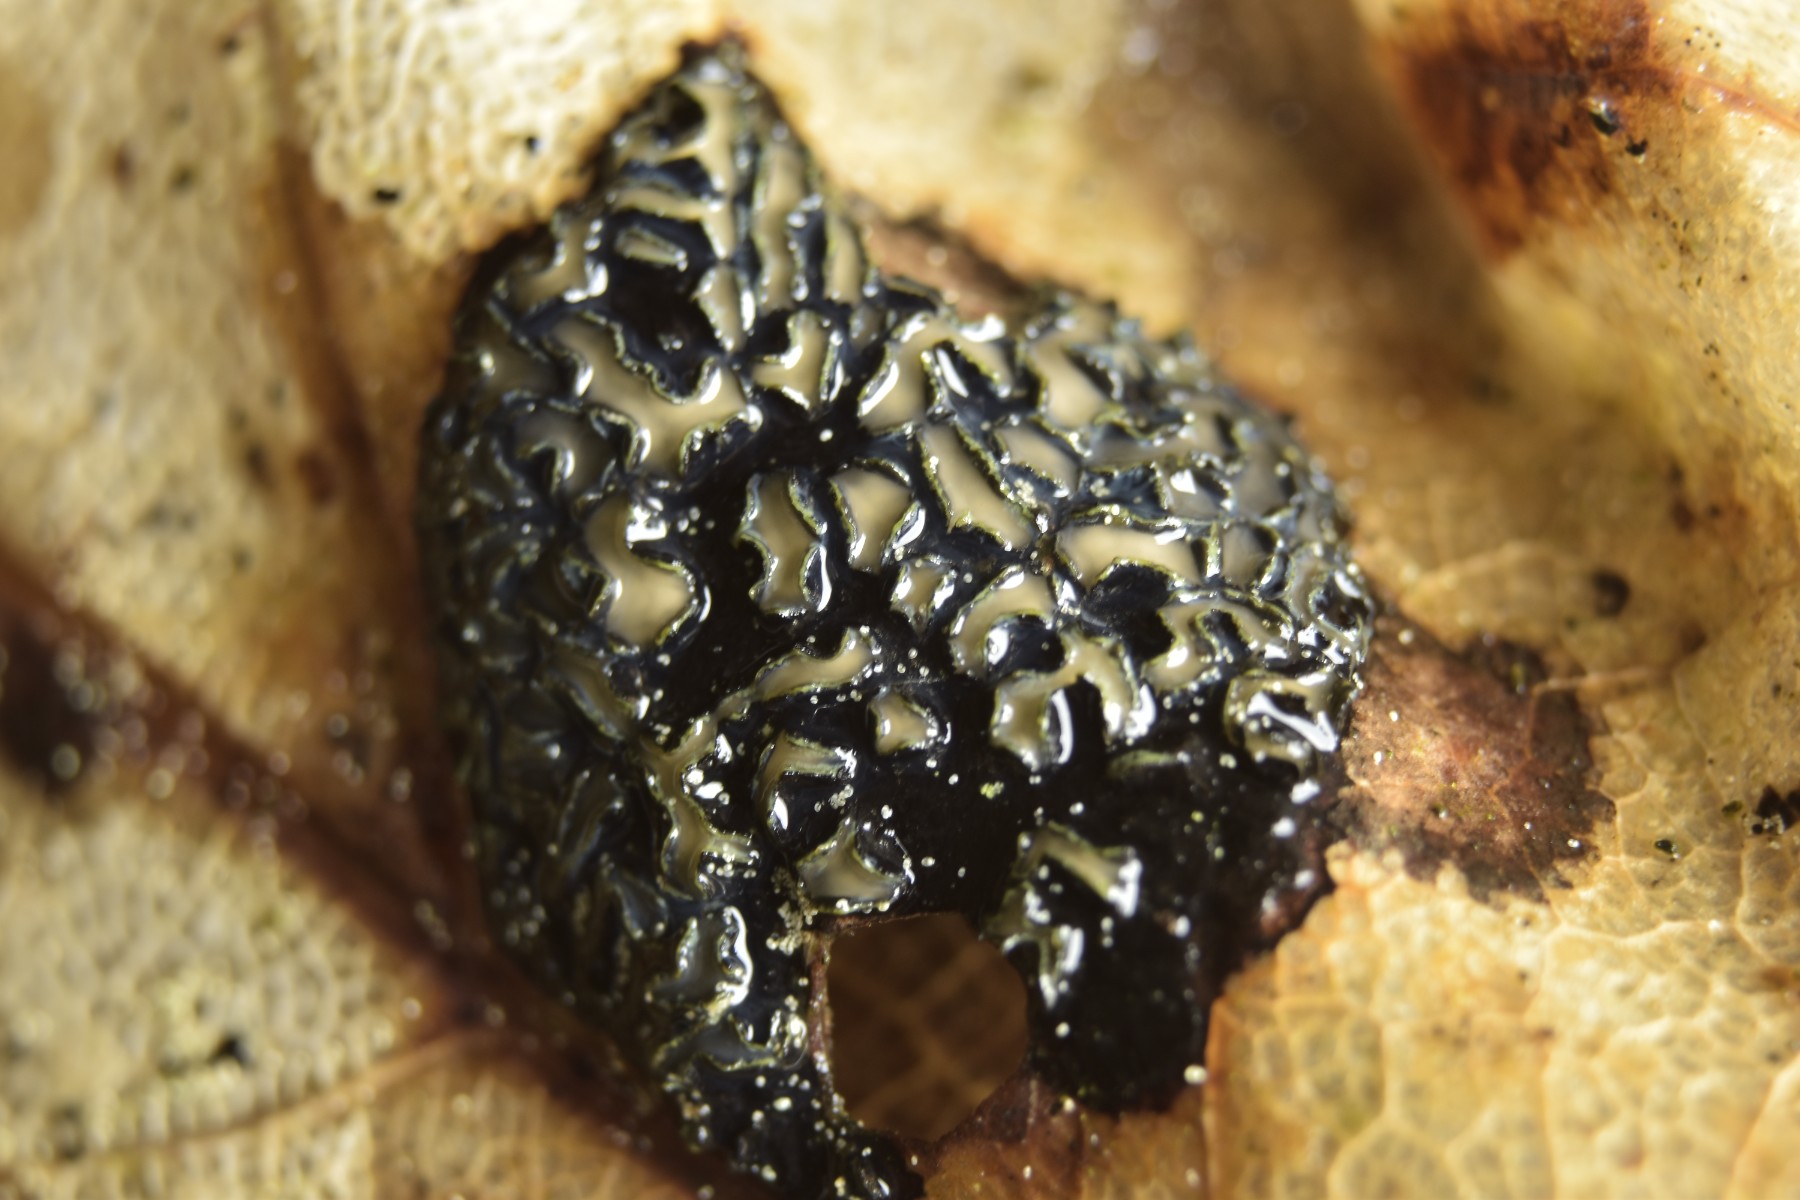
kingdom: Fungi
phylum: Ascomycota
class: Leotiomycetes
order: Rhytismatales
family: Rhytismataceae
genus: Rhytisma
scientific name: Rhytisma acerinum
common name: ahorn-rynkeplet
